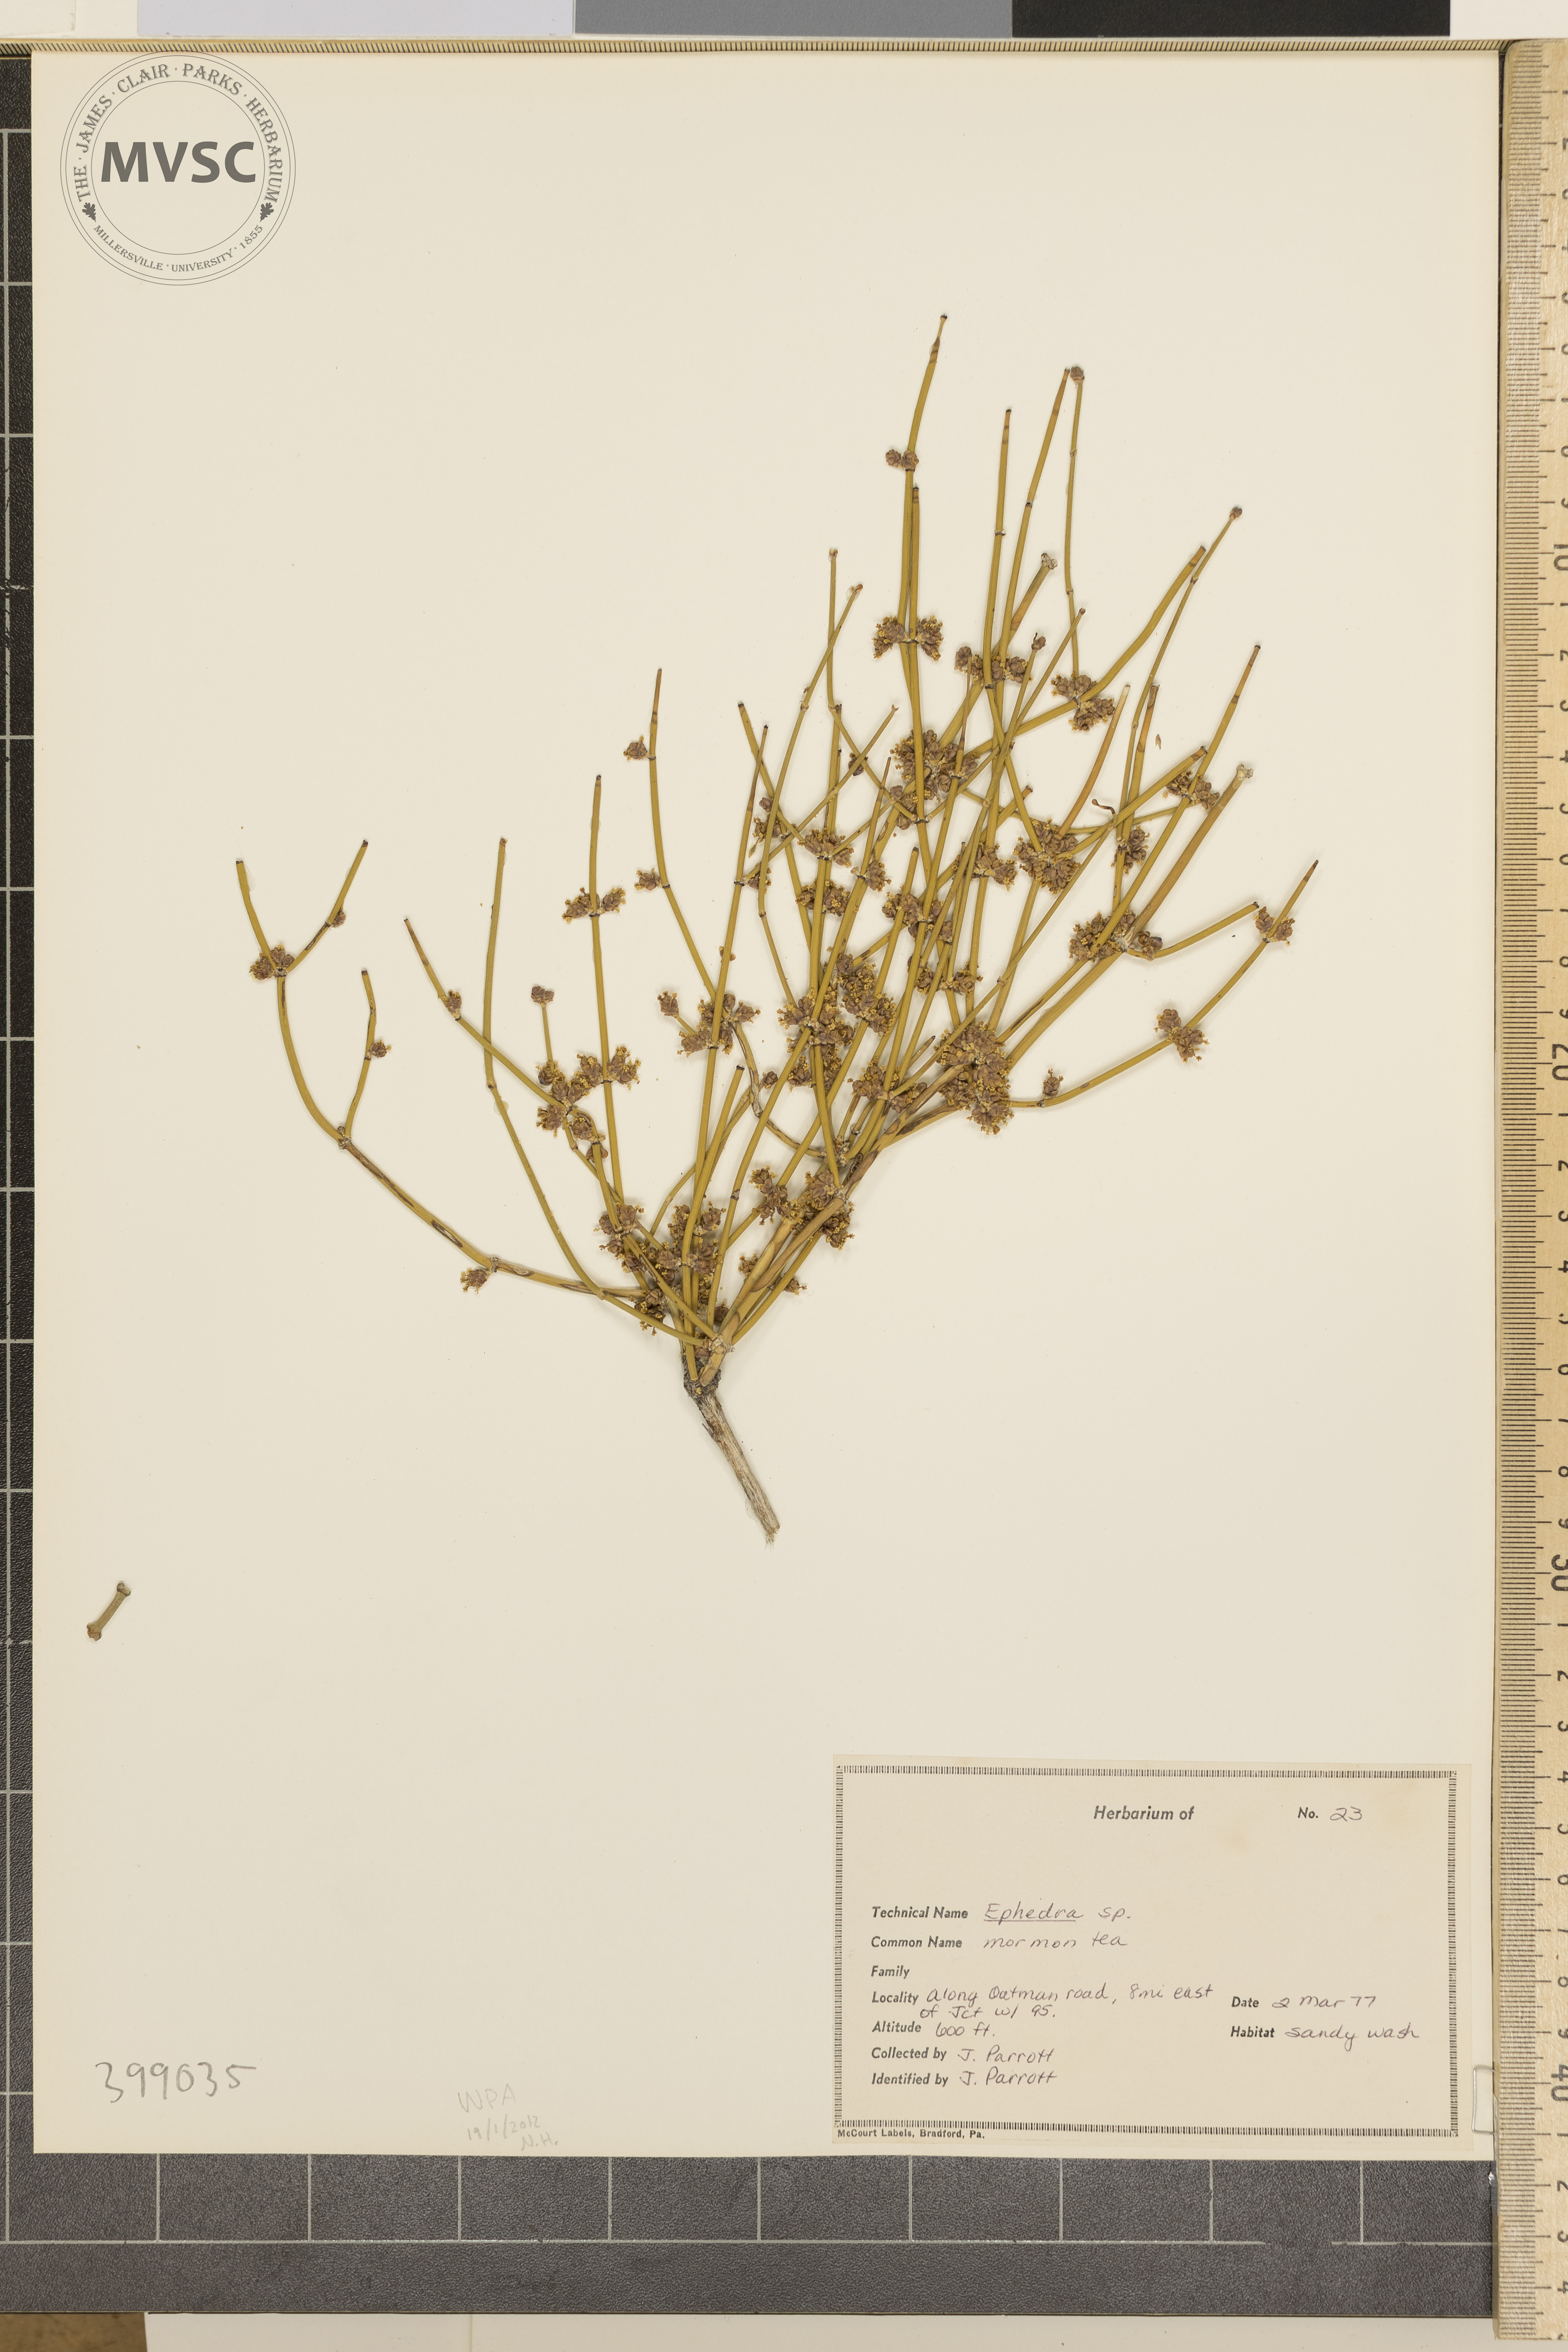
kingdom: Plantae
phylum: Tracheophyta
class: Gnetopsida
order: Ephedrales
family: Ephedraceae
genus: Ephedra
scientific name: Ephedra
